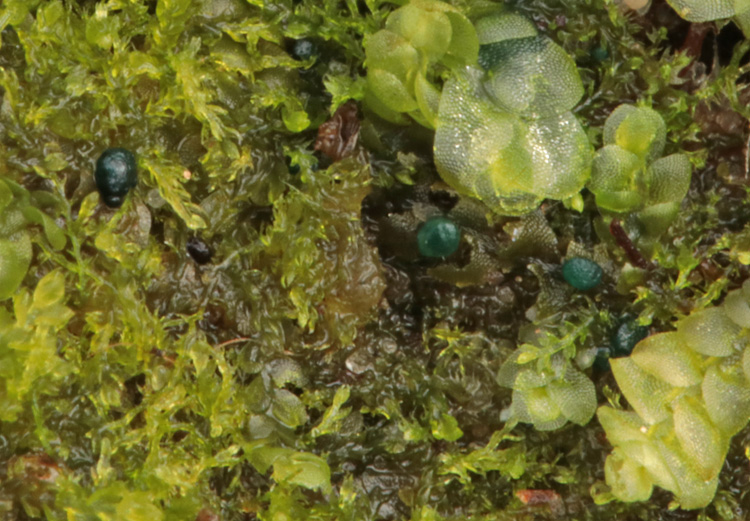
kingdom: Fungi
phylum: Ascomycota
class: Leotiomycetes
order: Leotiales
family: Mniaeciaceae
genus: Mniaecia
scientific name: Mniaecia jungermanniae
